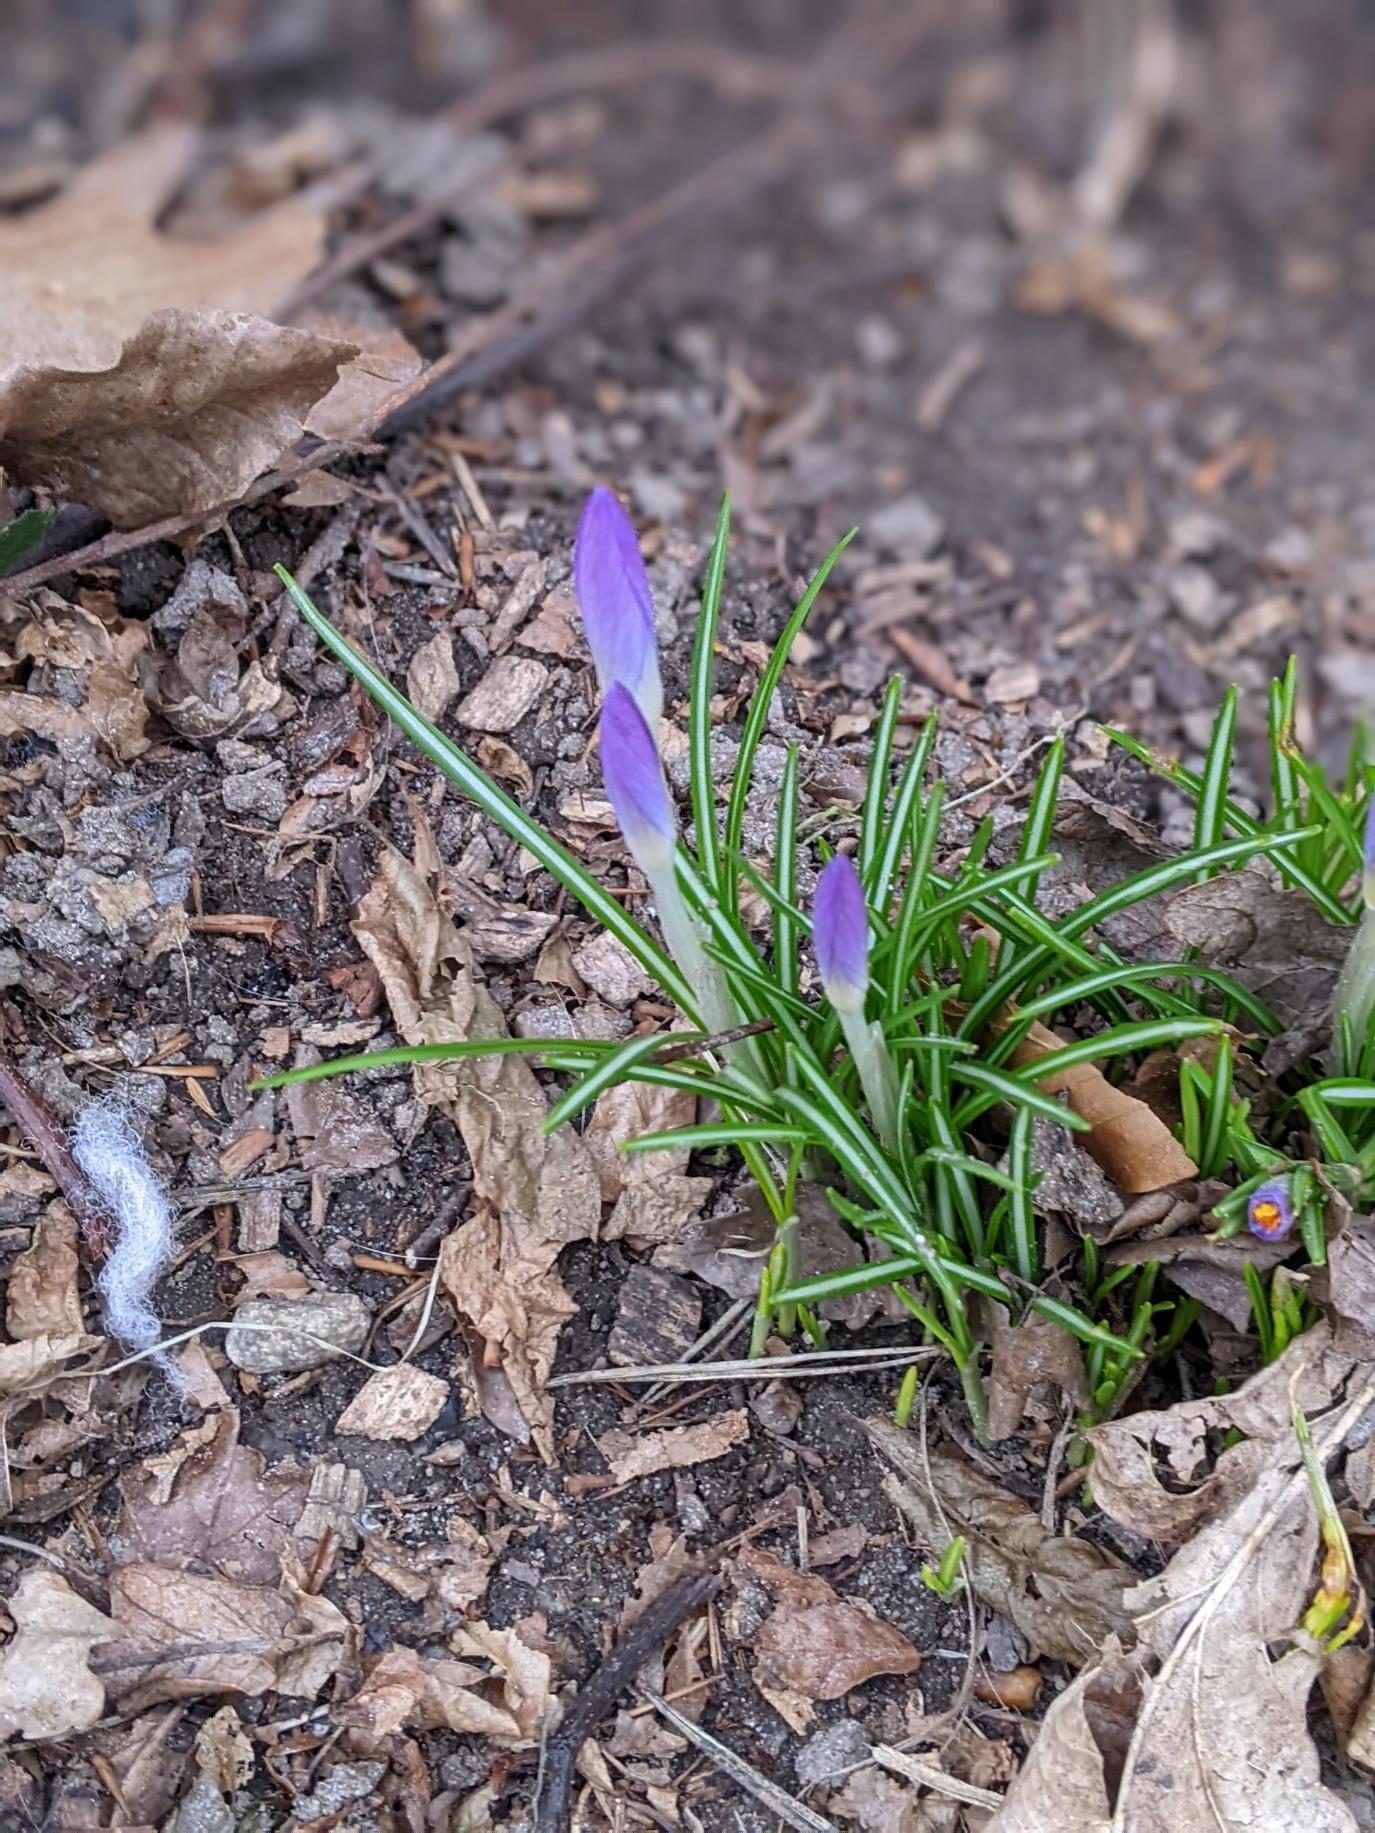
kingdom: Plantae
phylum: Tracheophyta
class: Liliopsida
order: Asparagales
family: Iridaceae
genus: Crocus
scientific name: Crocus tommasinianus
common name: Sne-krokus
